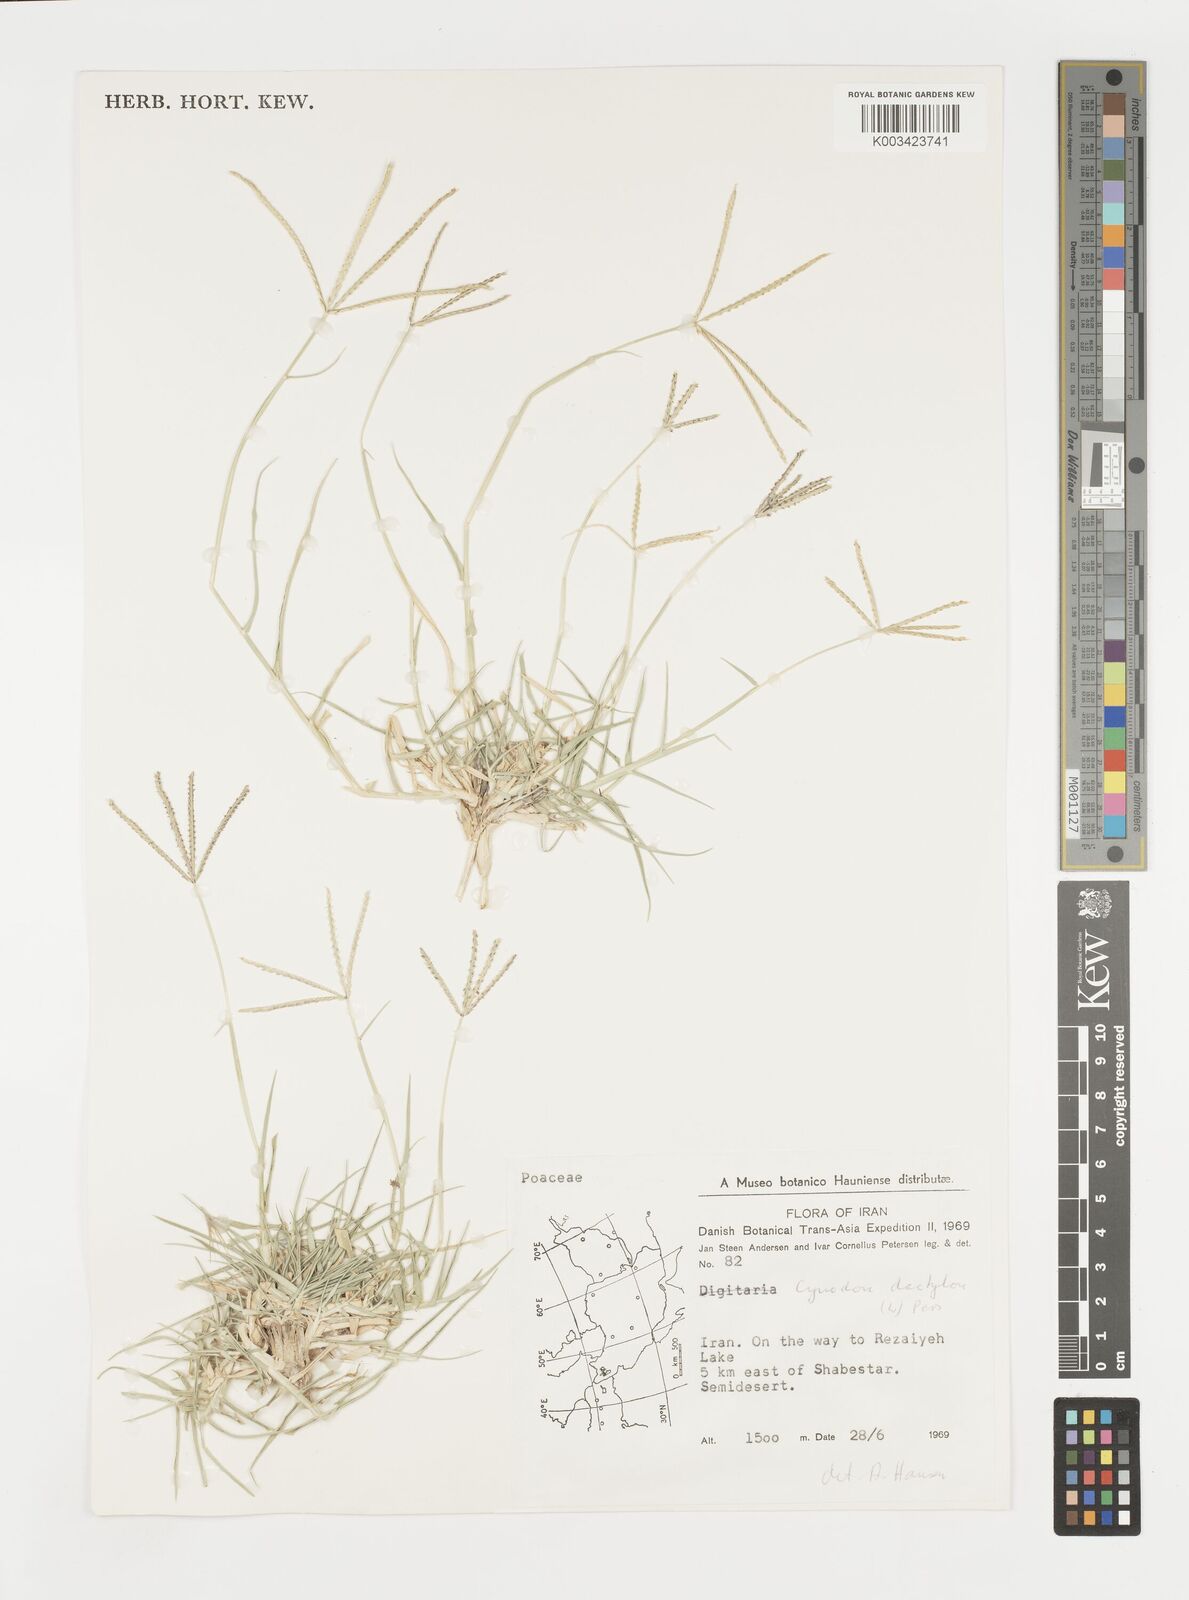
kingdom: Plantae
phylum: Tracheophyta
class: Liliopsida
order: Poales
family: Poaceae
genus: Cynodon
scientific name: Cynodon dactylon
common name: Bermuda grass
